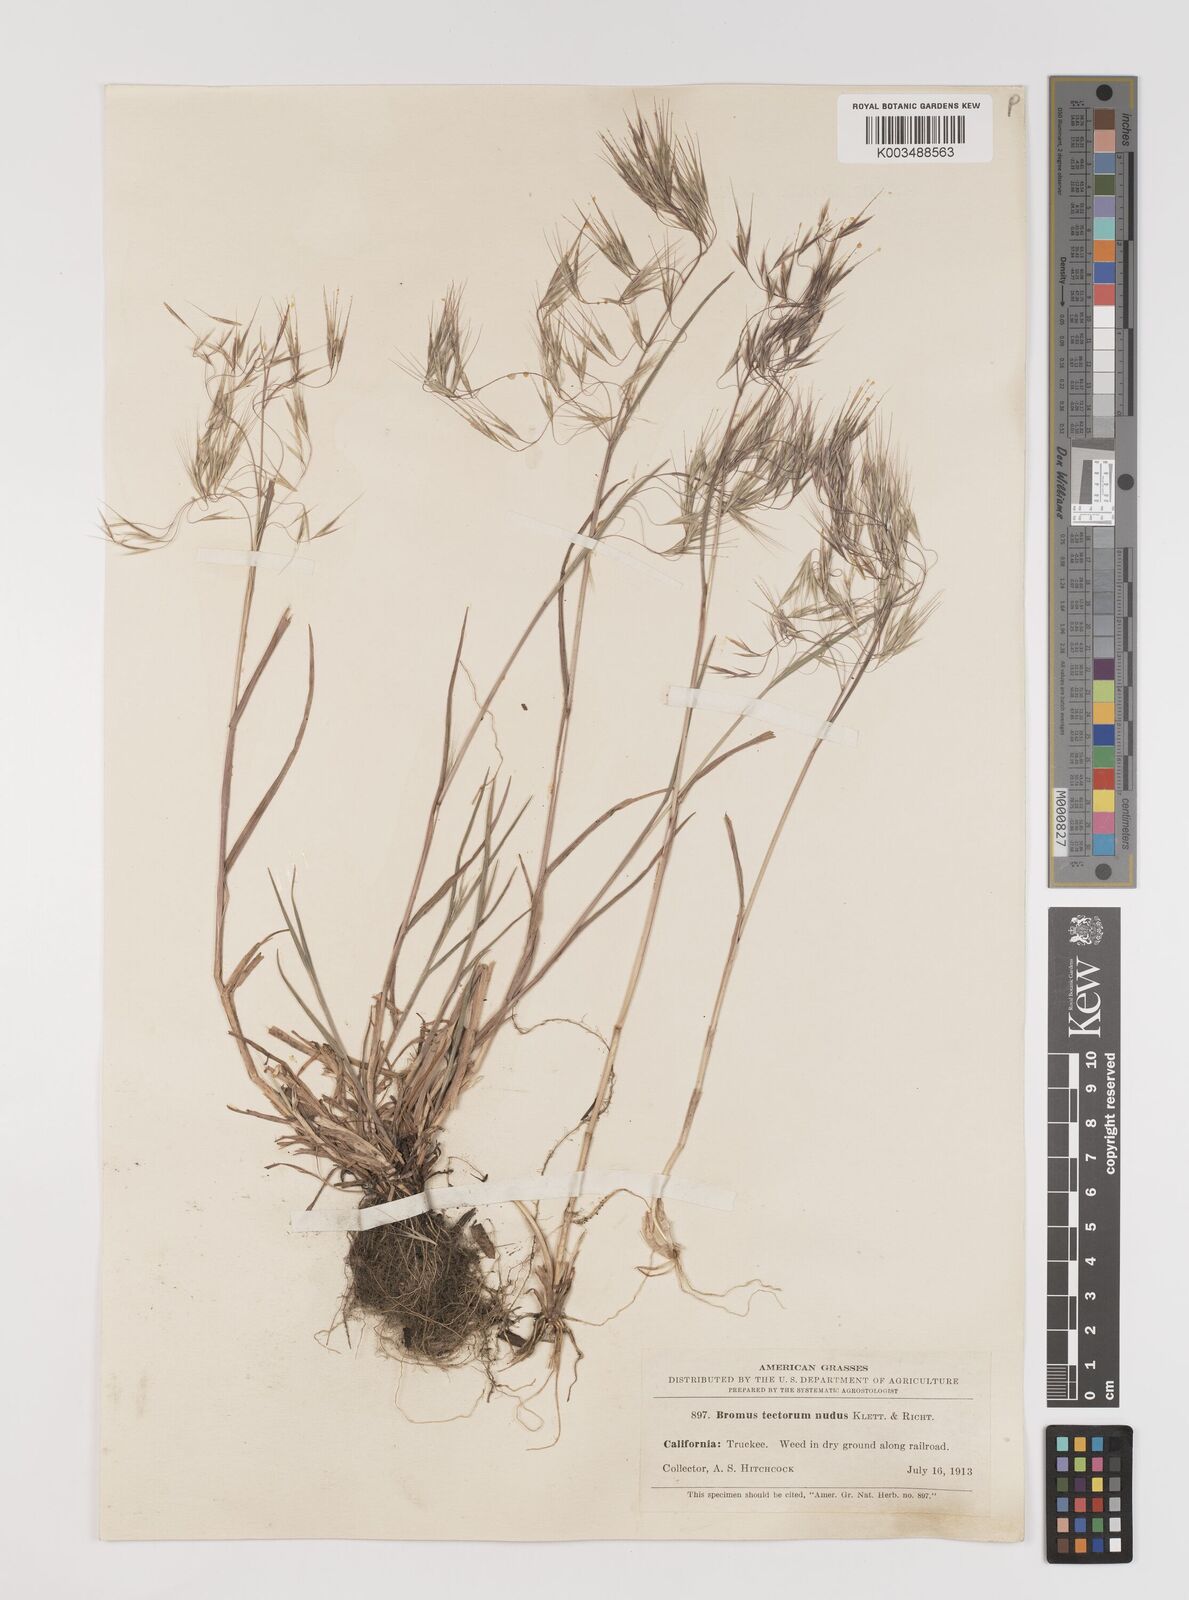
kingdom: Plantae
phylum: Tracheophyta
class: Liliopsida
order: Poales
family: Poaceae
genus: Bromus
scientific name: Bromus tectorum
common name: Cheatgrass
